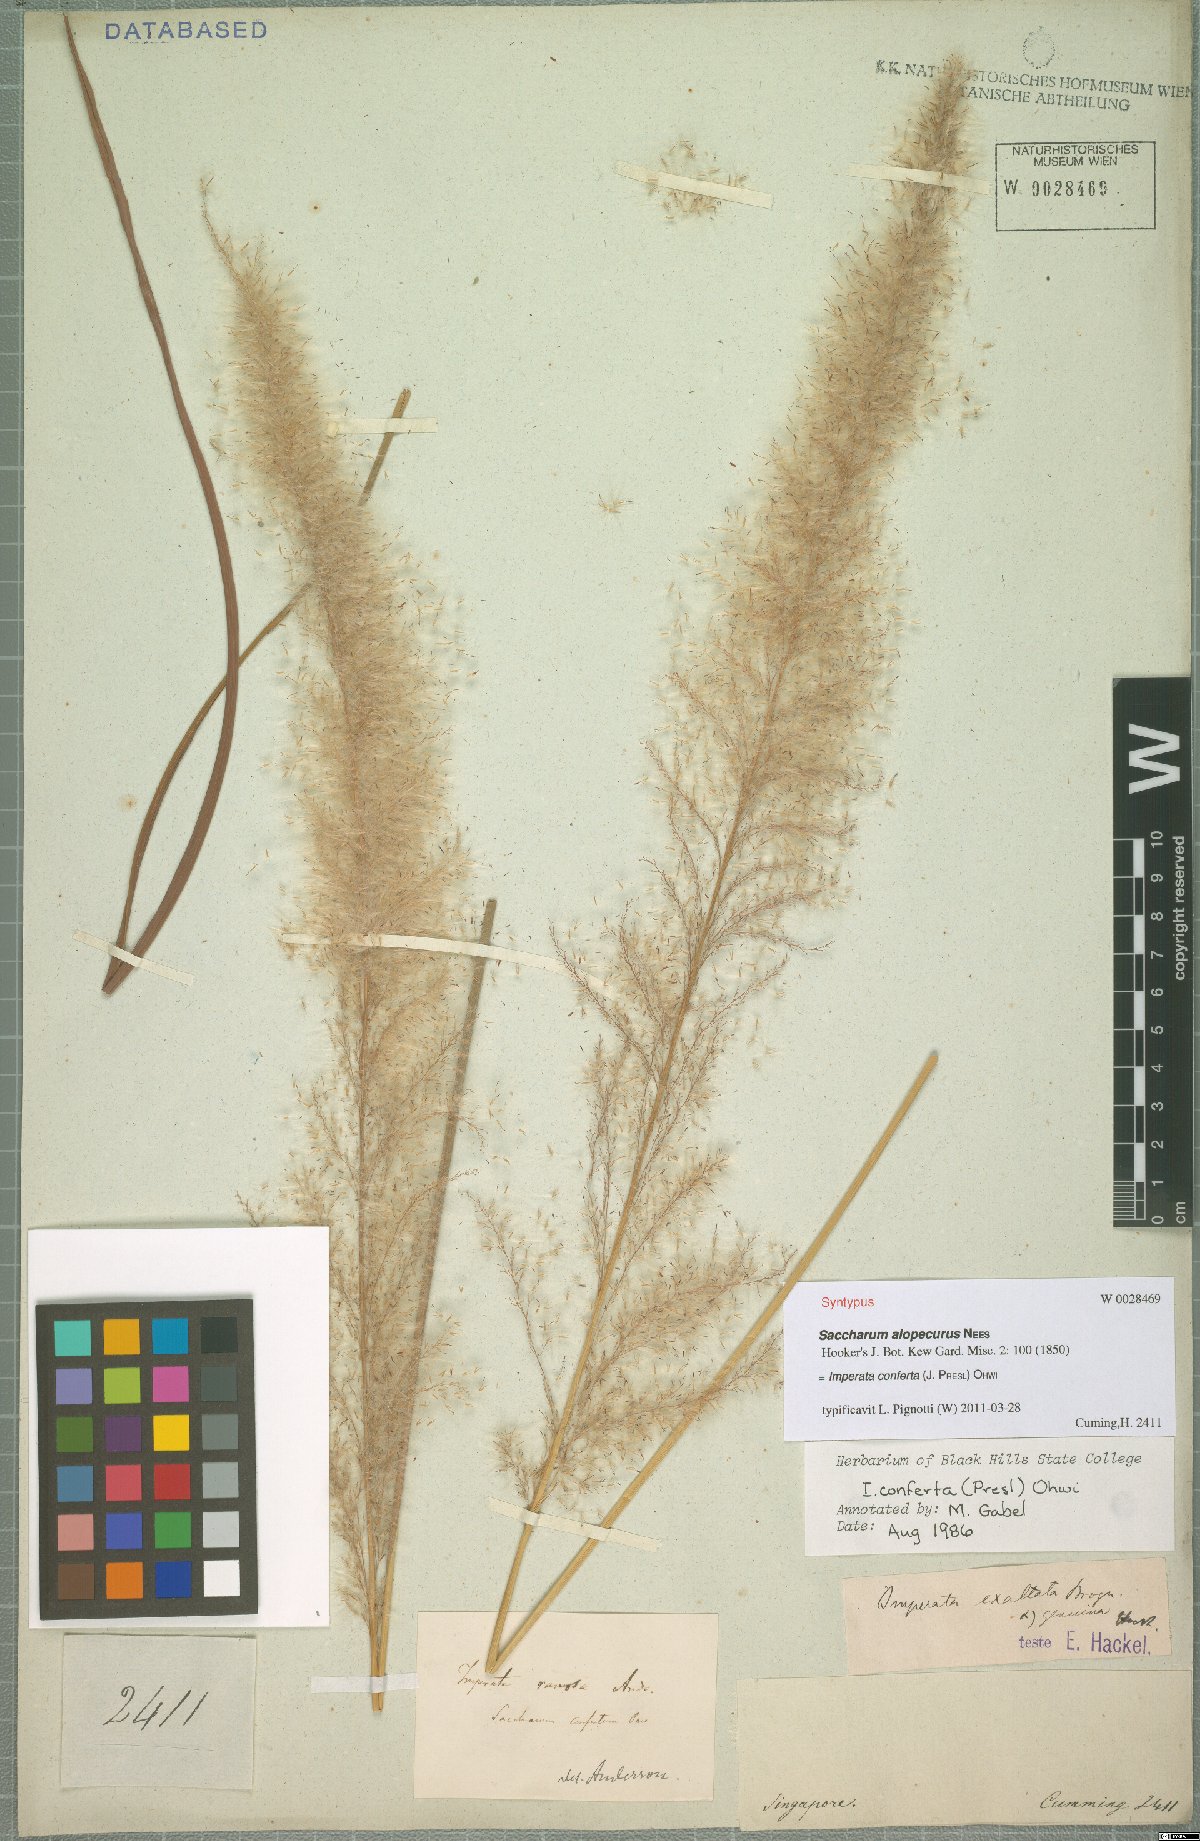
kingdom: Plantae
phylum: Tracheophyta
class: Liliopsida
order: Poales
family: Poaceae
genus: Imperata
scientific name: Imperata conferta
